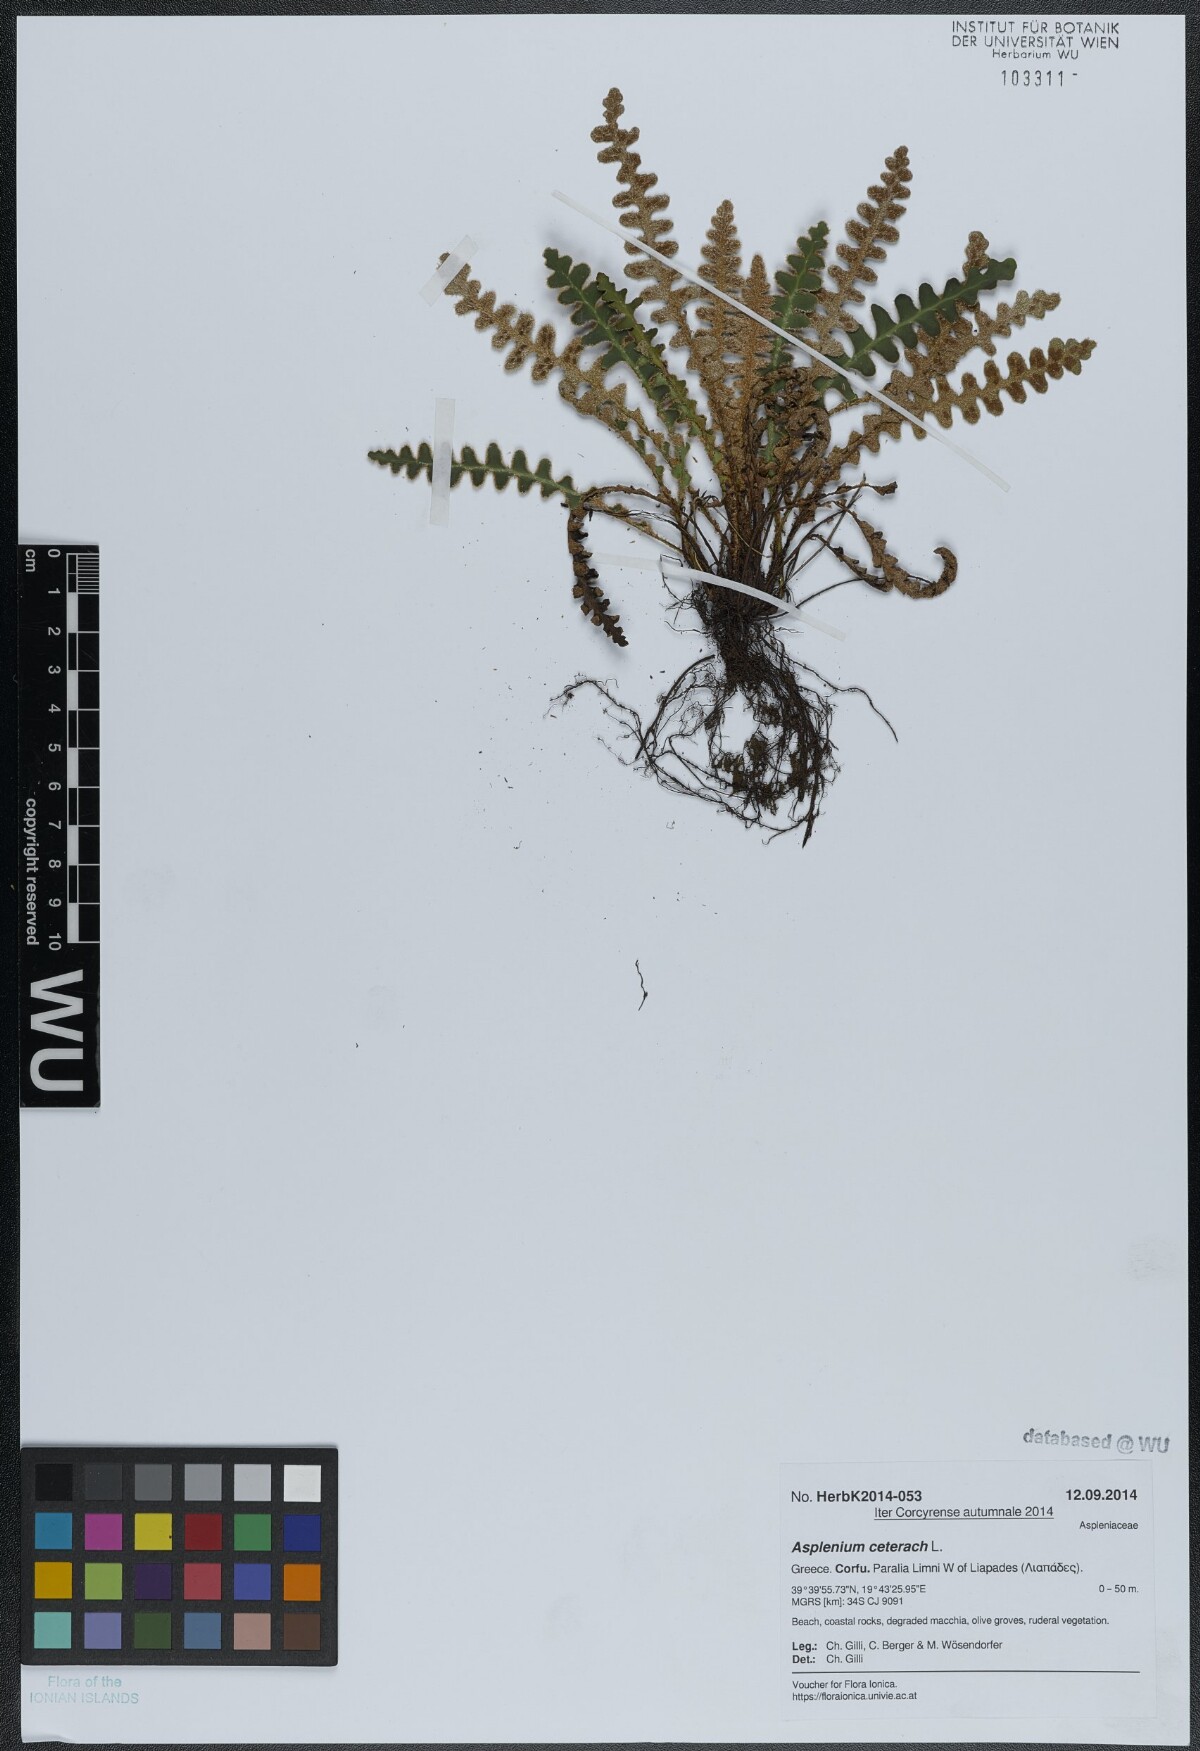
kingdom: Plantae
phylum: Tracheophyta
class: Polypodiopsida
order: Polypodiales
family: Aspleniaceae
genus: Asplenium
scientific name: Asplenium ceterach
